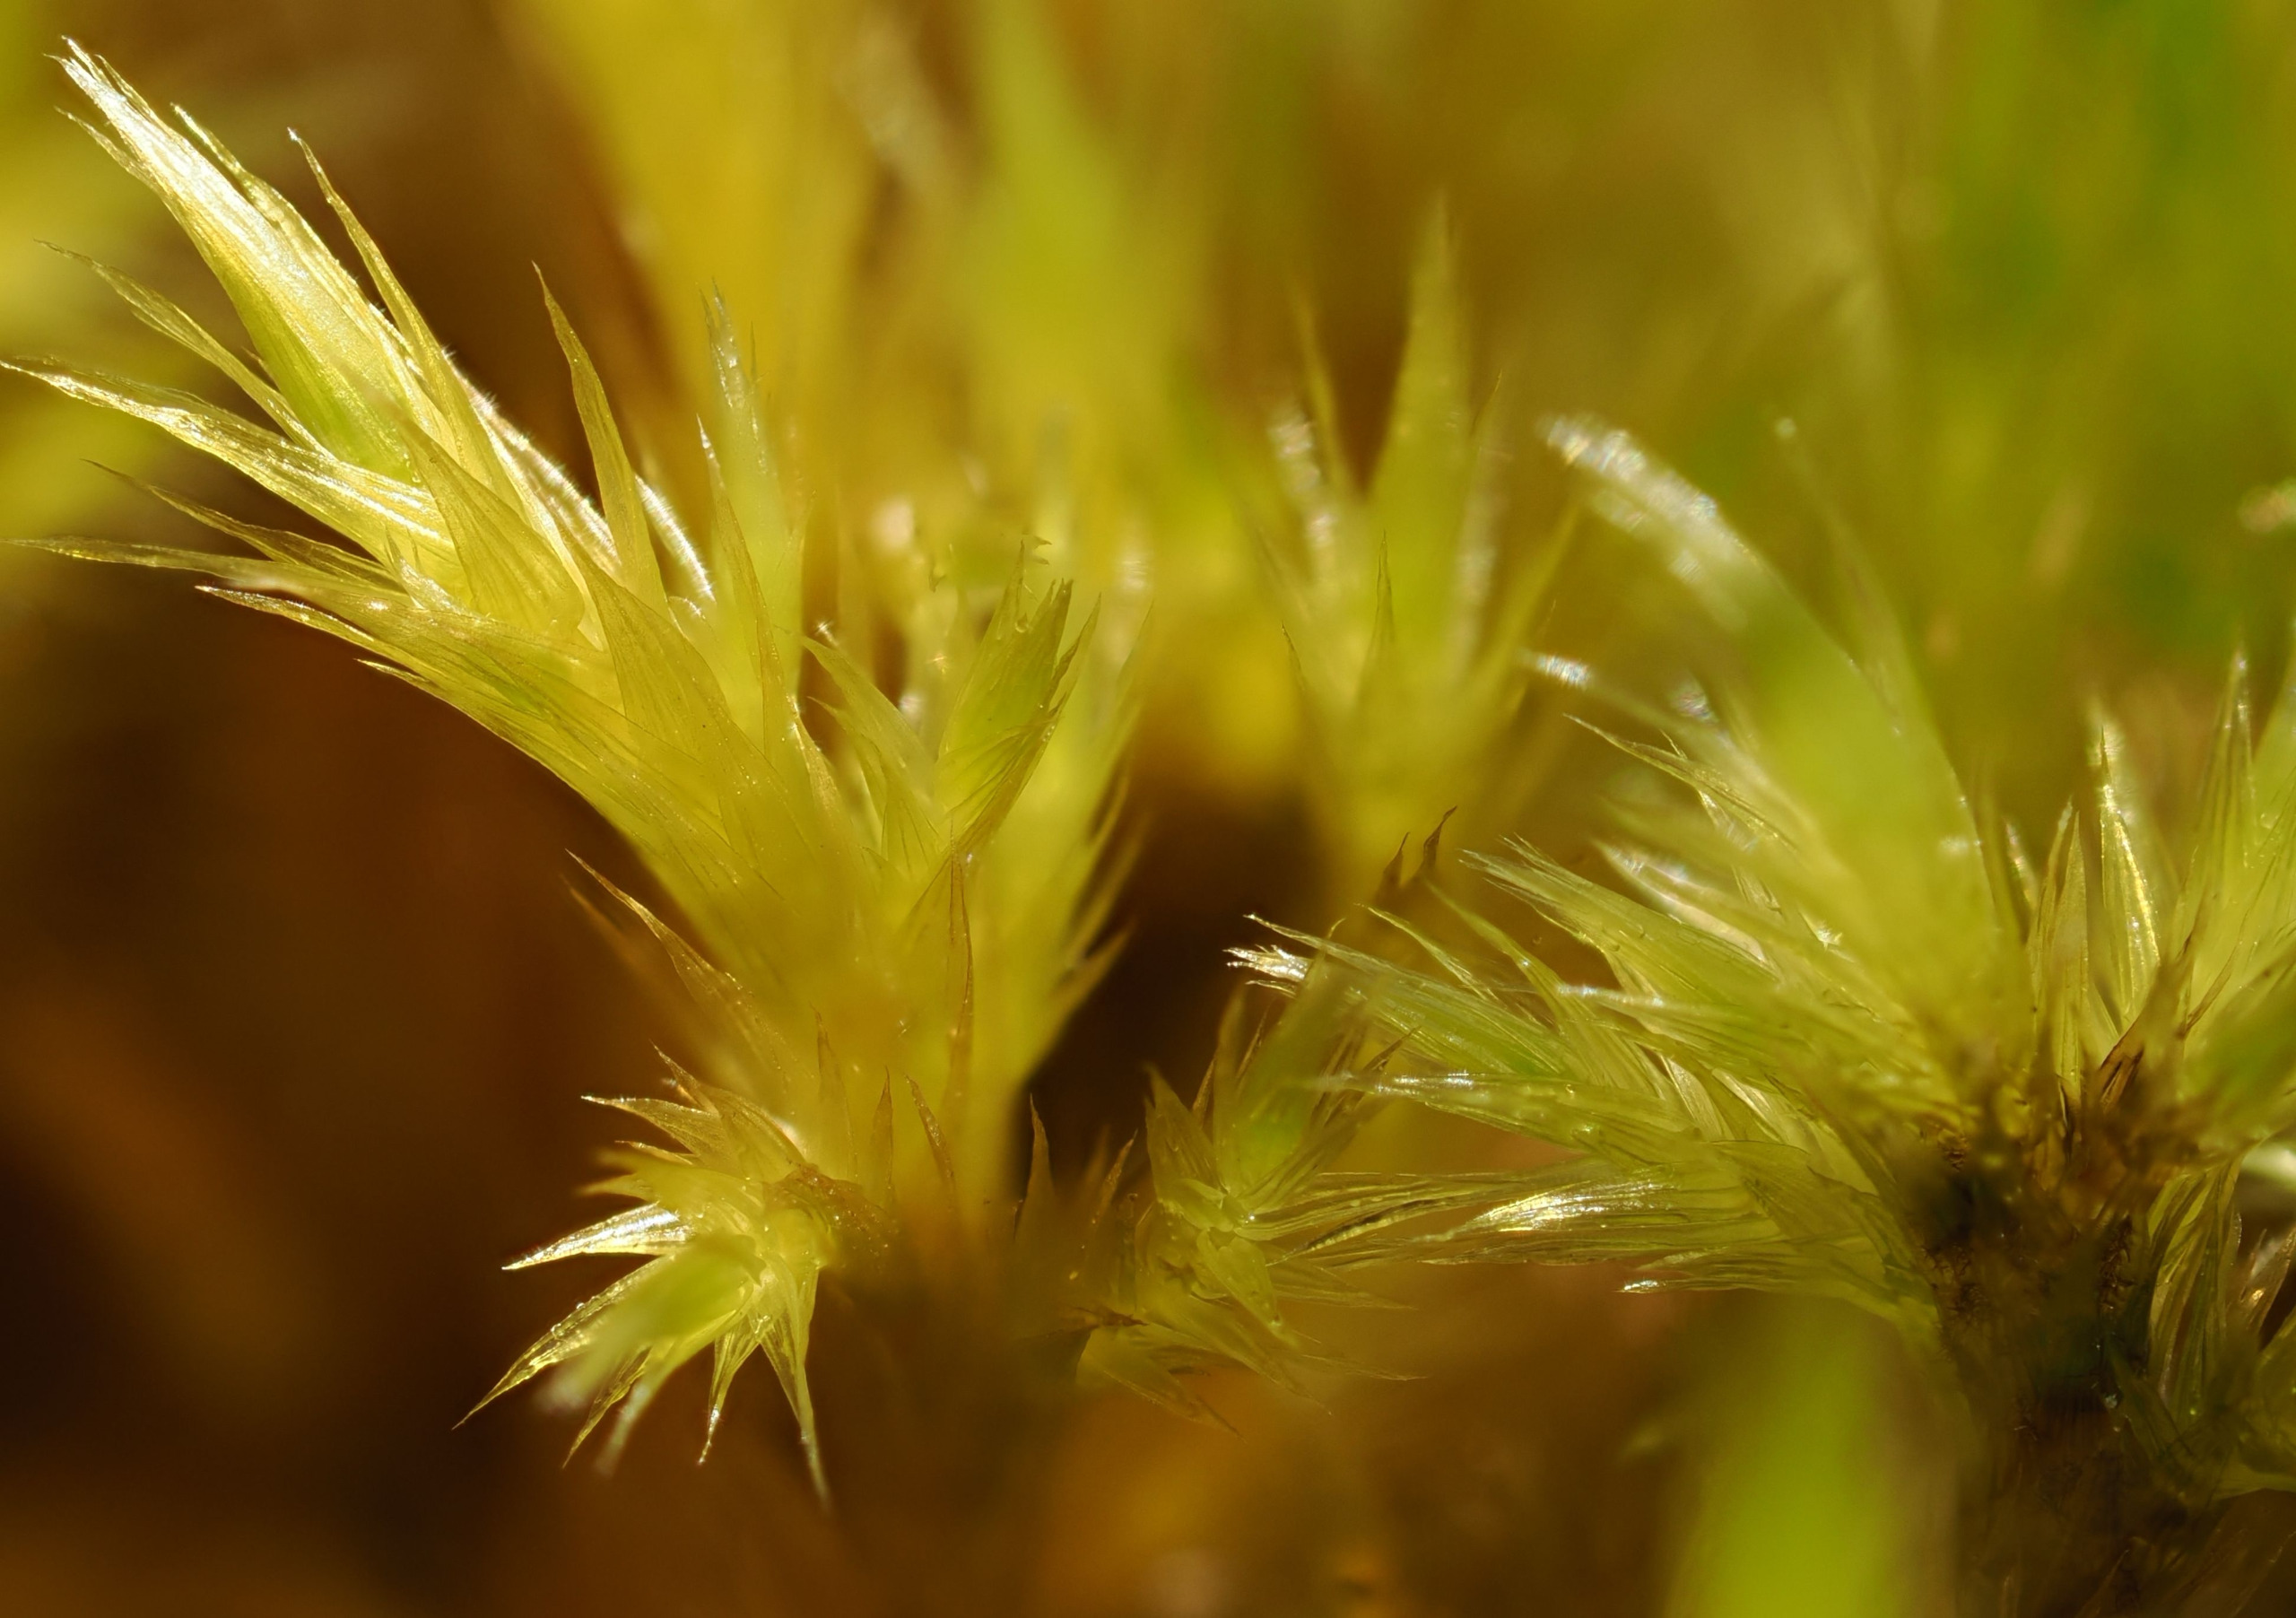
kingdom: Plantae
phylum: Bryophyta
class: Bryopsida
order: Hypnales
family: Amblystegiaceae
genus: Tomentypnum
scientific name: Tomentypnum nitens
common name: Glinsende kærmos
